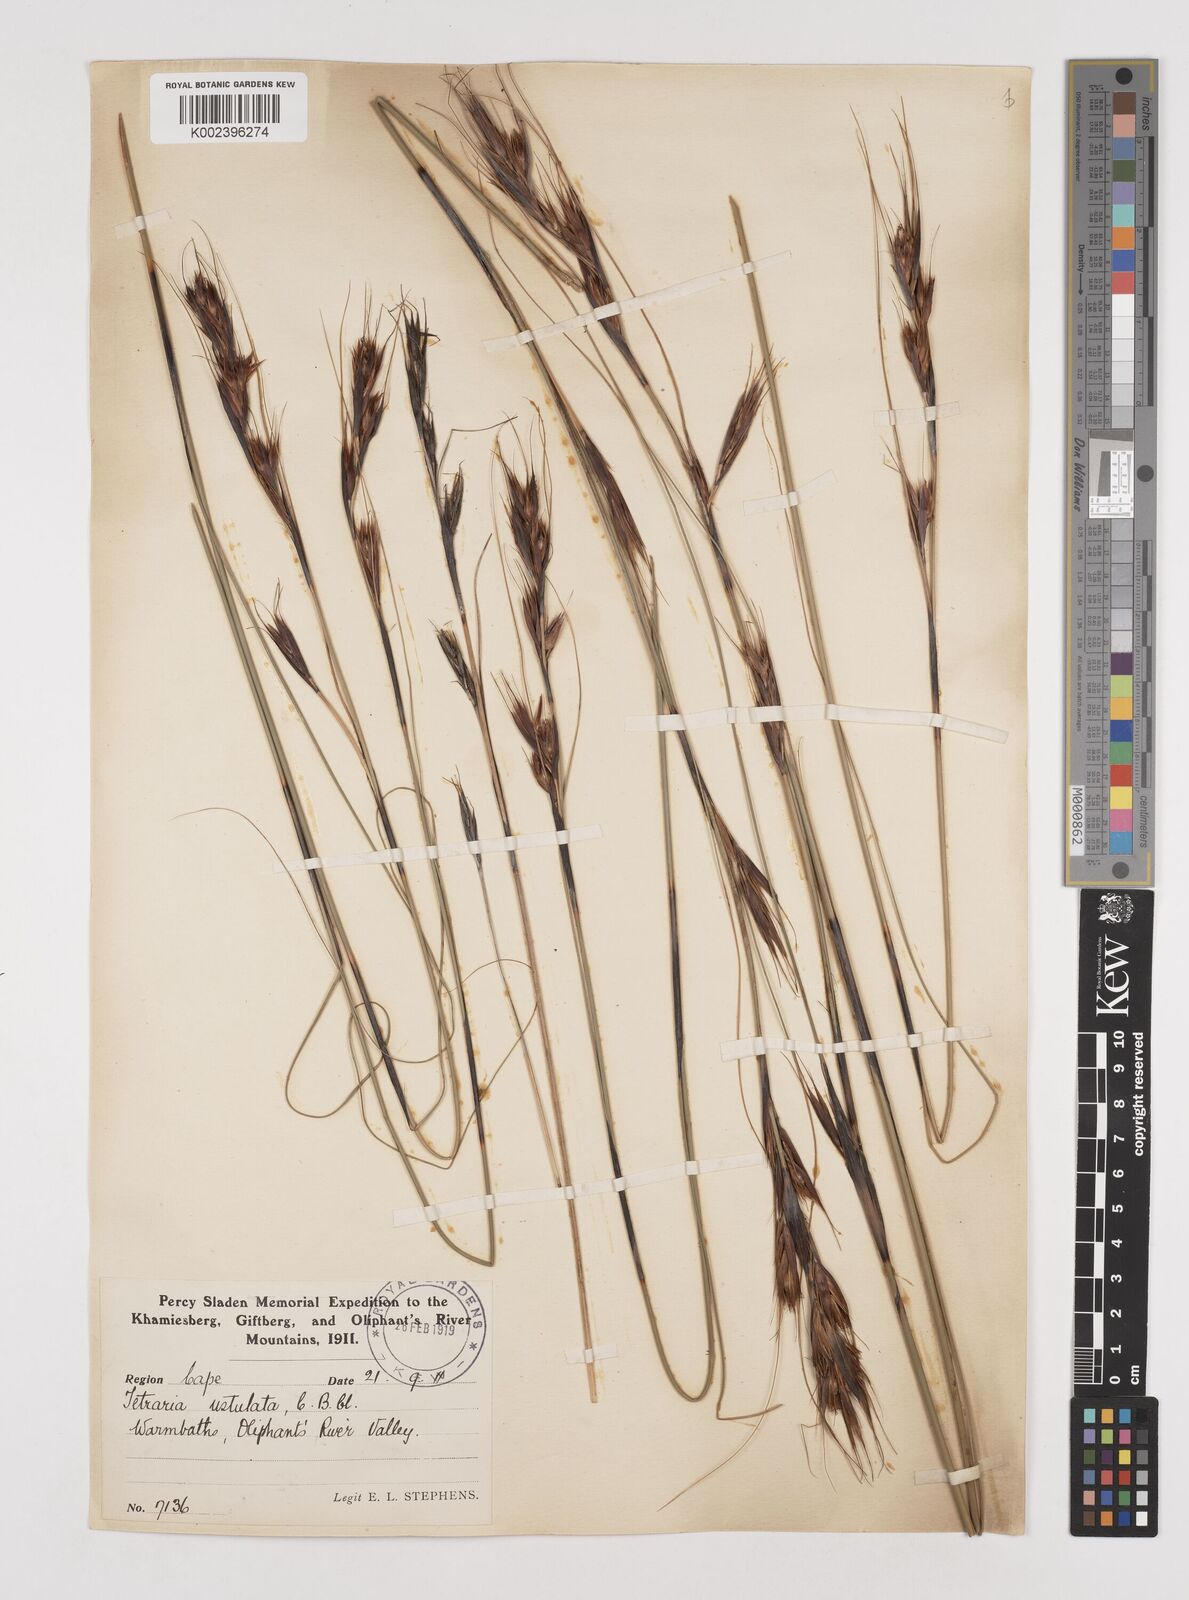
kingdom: Plantae
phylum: Tracheophyta
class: Liliopsida
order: Poales
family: Cyperaceae
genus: Tetraria
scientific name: Tetraria ustulata
